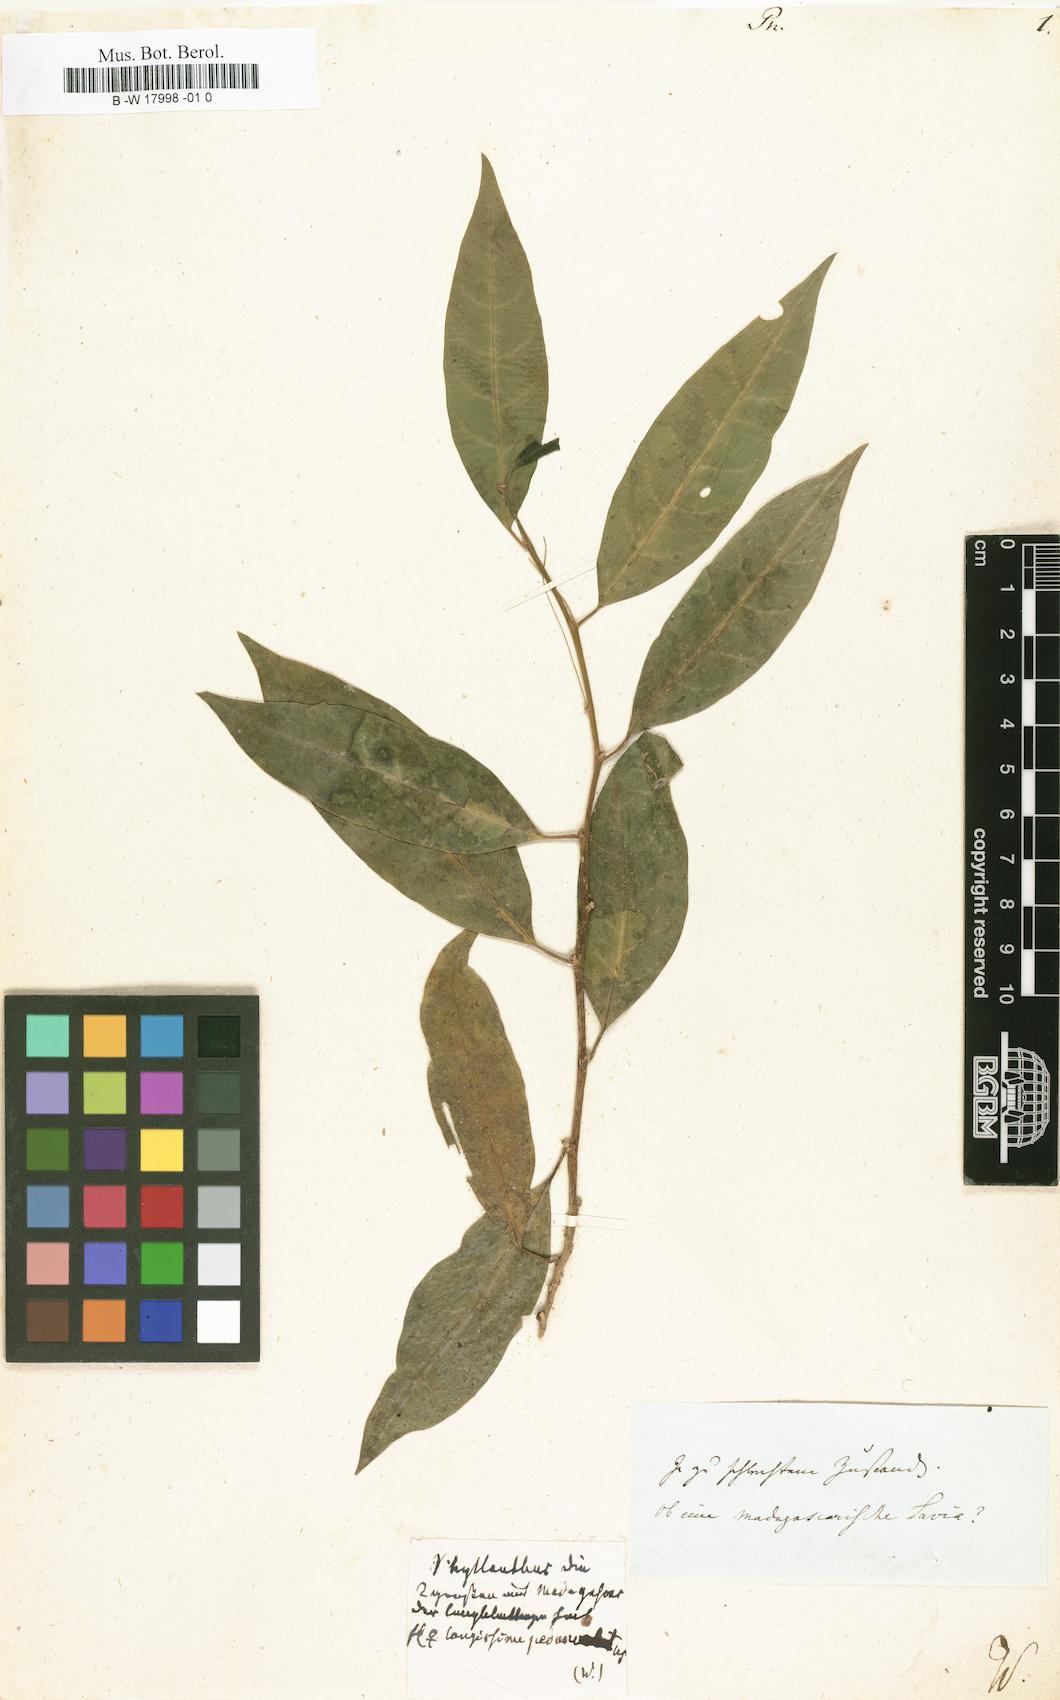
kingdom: Plantae
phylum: Tracheophyta
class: Magnoliopsida
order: Malpighiales
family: Phyllanthaceae
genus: Phyllanthus
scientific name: Phyllanthus
